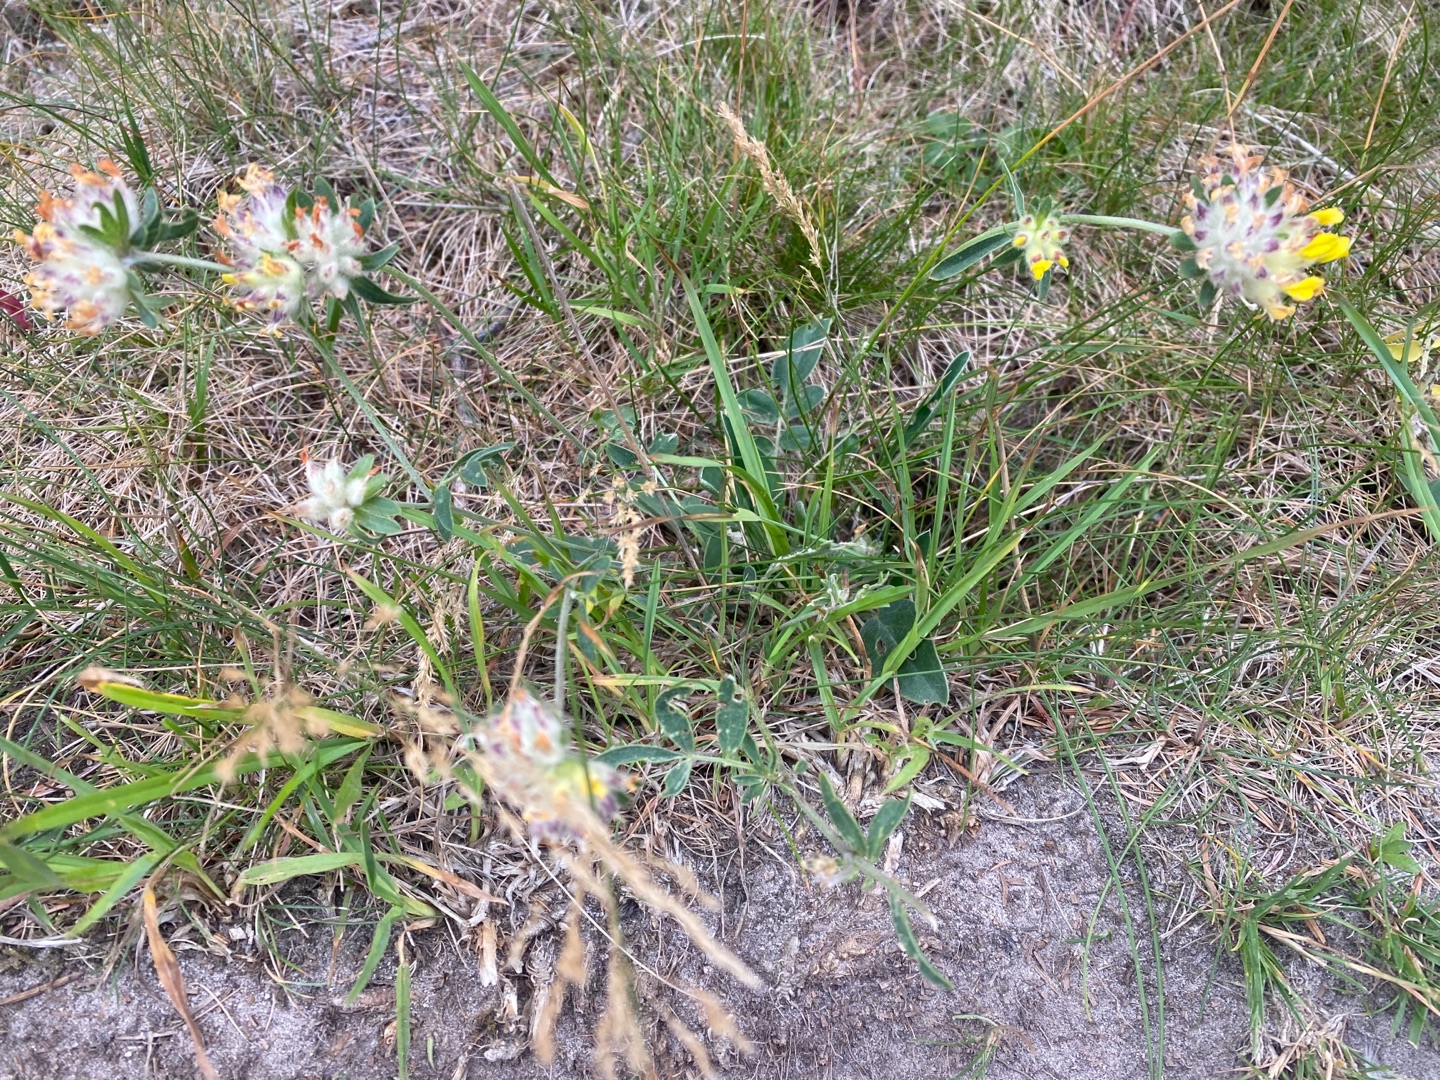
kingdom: Plantae
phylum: Tracheophyta
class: Magnoliopsida
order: Fabales
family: Fabaceae
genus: Anthyllis
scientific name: Anthyllis vulneraria
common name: Rundbælg
